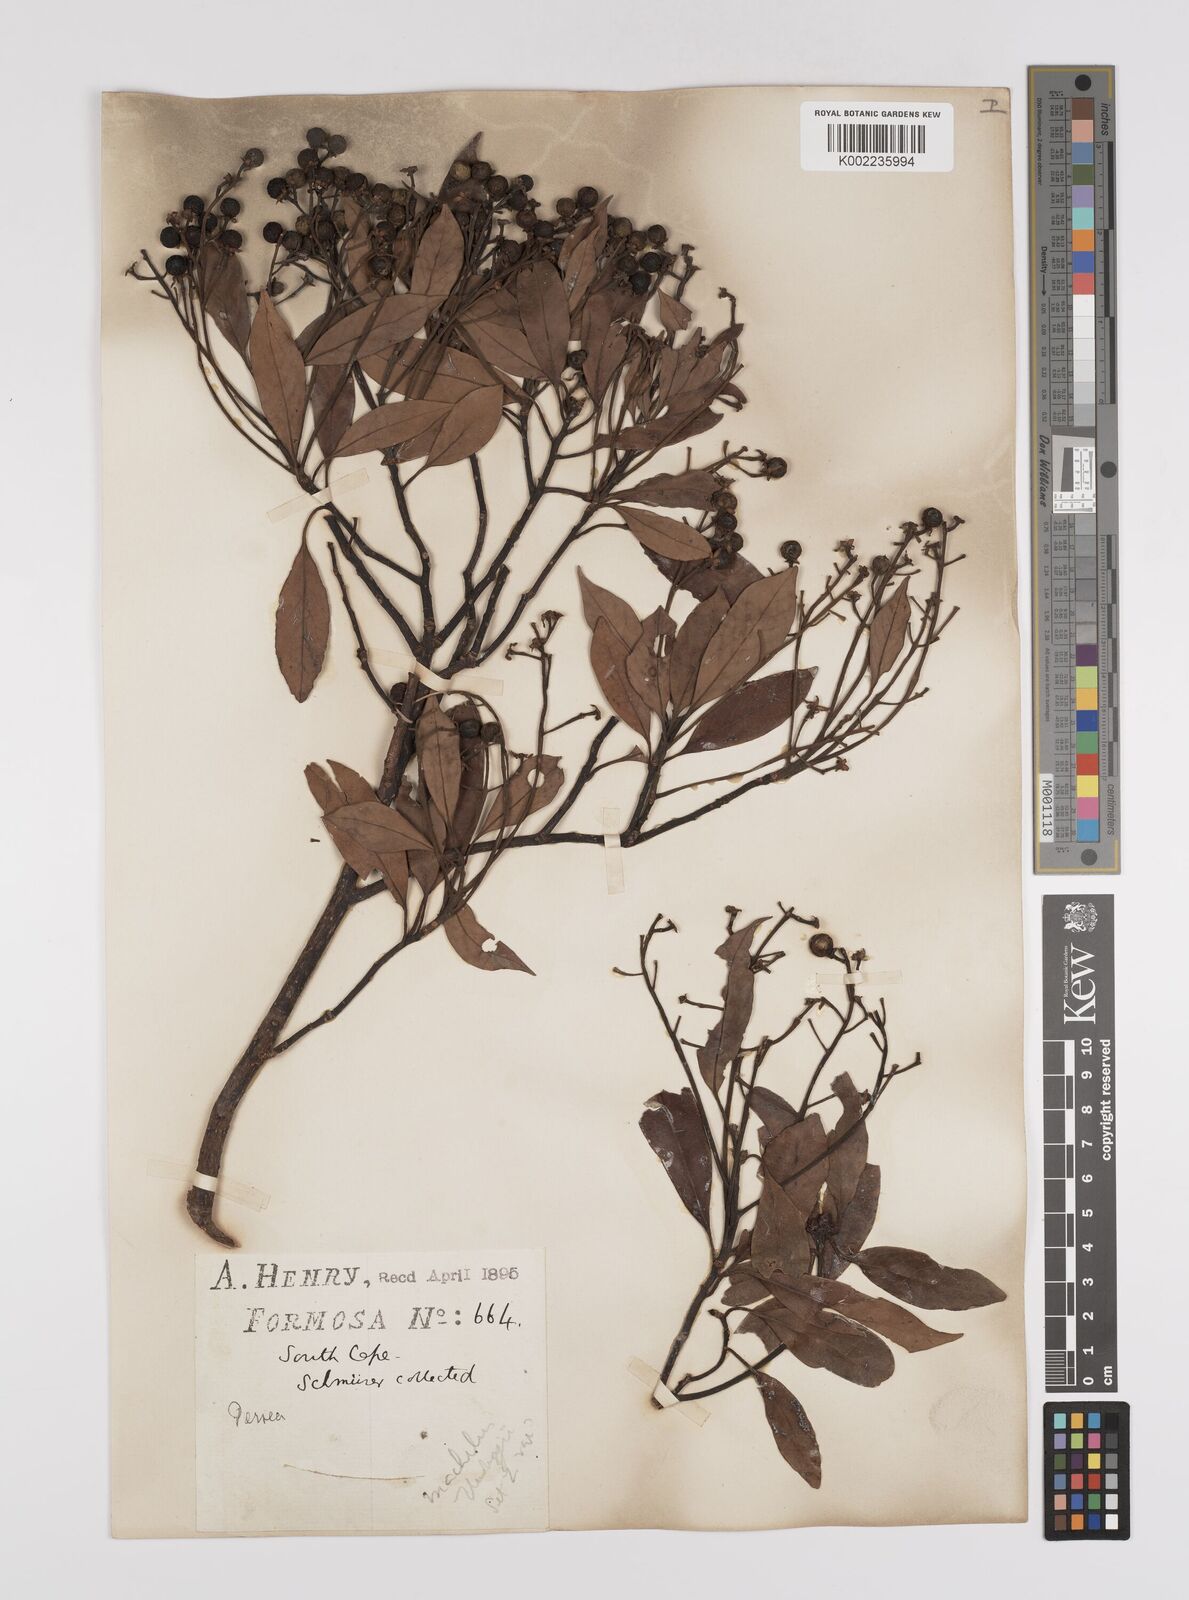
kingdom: Plantae
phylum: Tracheophyta
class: Magnoliopsida
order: Laurales
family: Lauraceae
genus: Persea
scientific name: Persea
